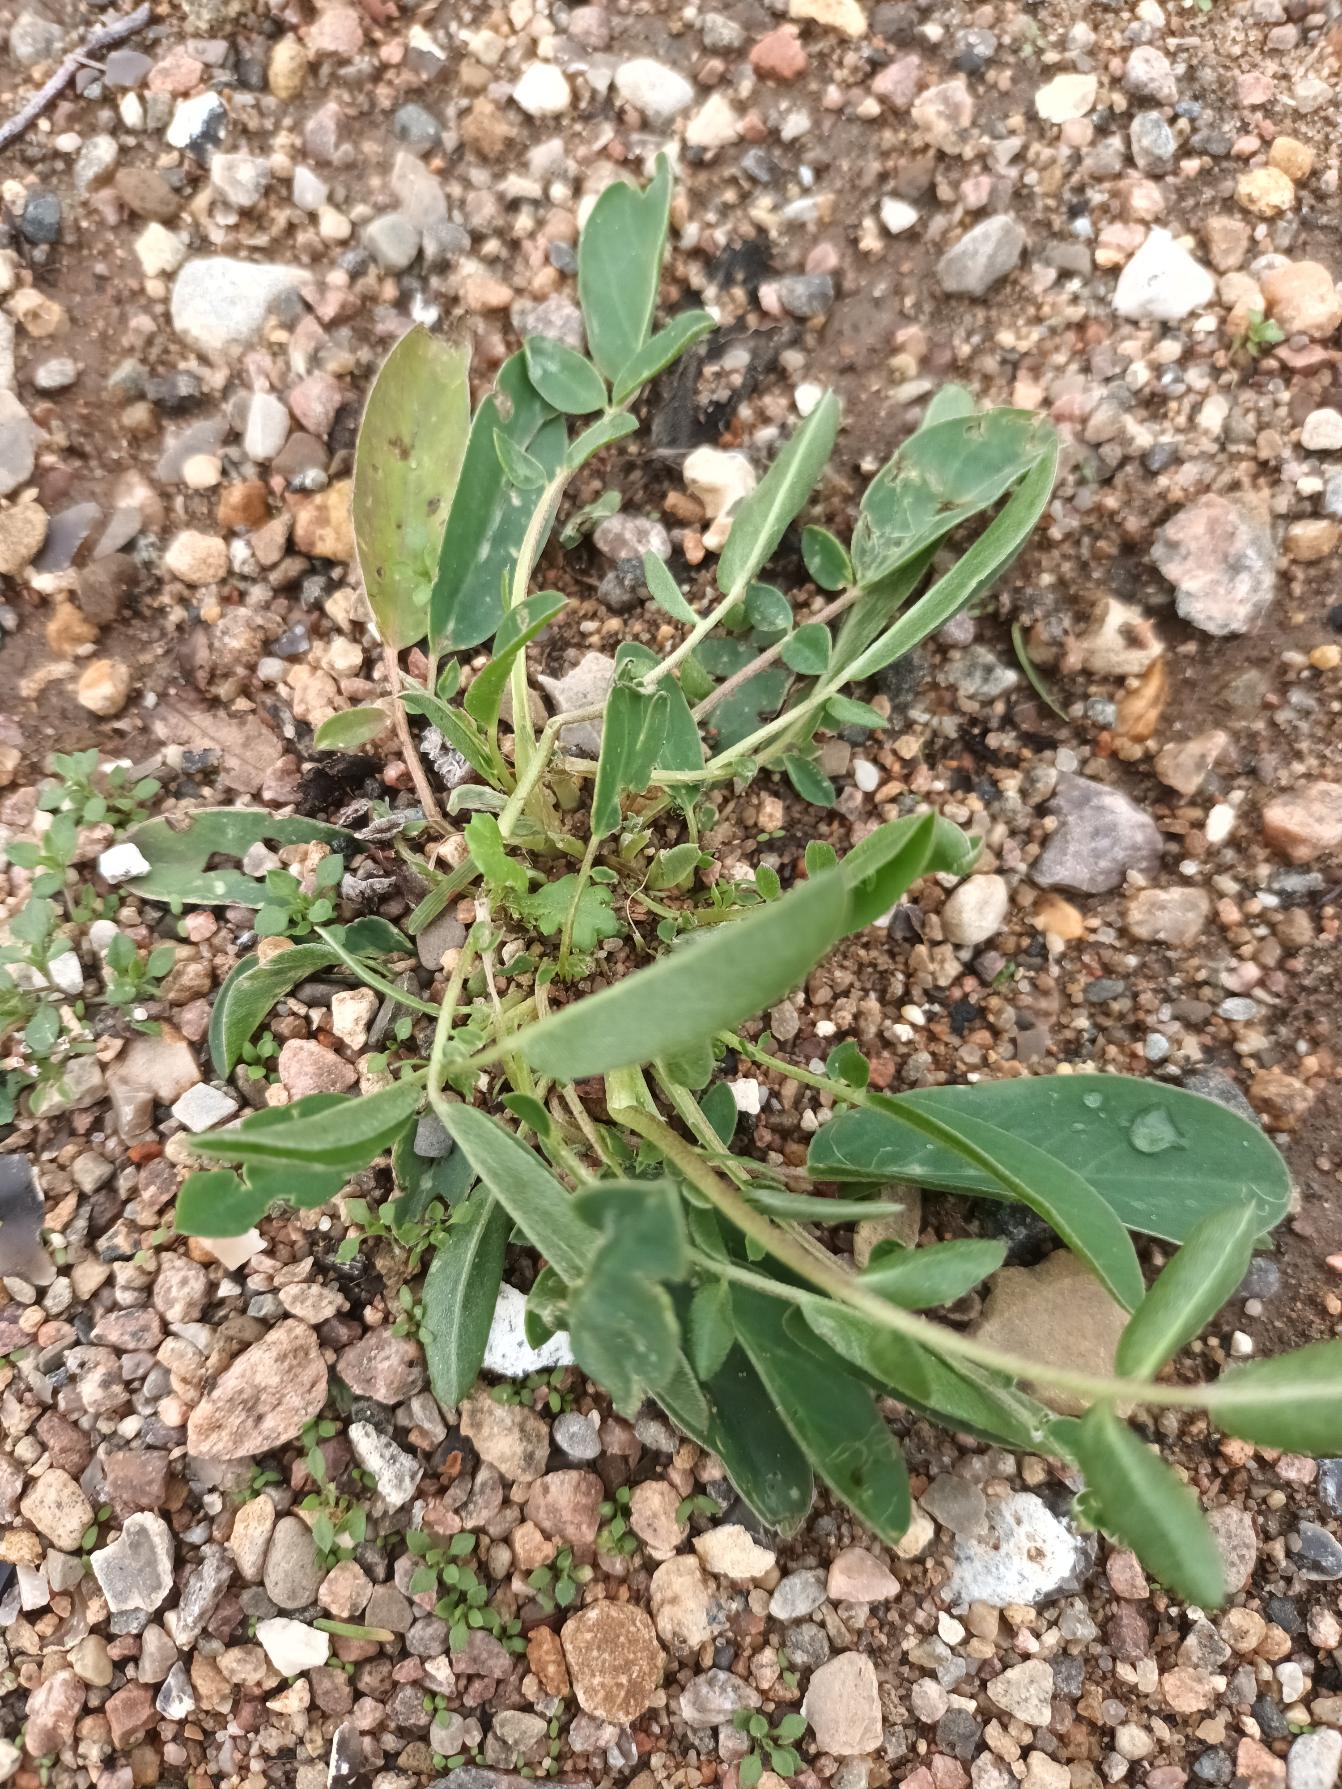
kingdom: Plantae
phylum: Tracheophyta
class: Magnoliopsida
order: Fabales
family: Fabaceae
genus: Anthyllis
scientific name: Anthyllis vulneraria
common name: Rundbælg
